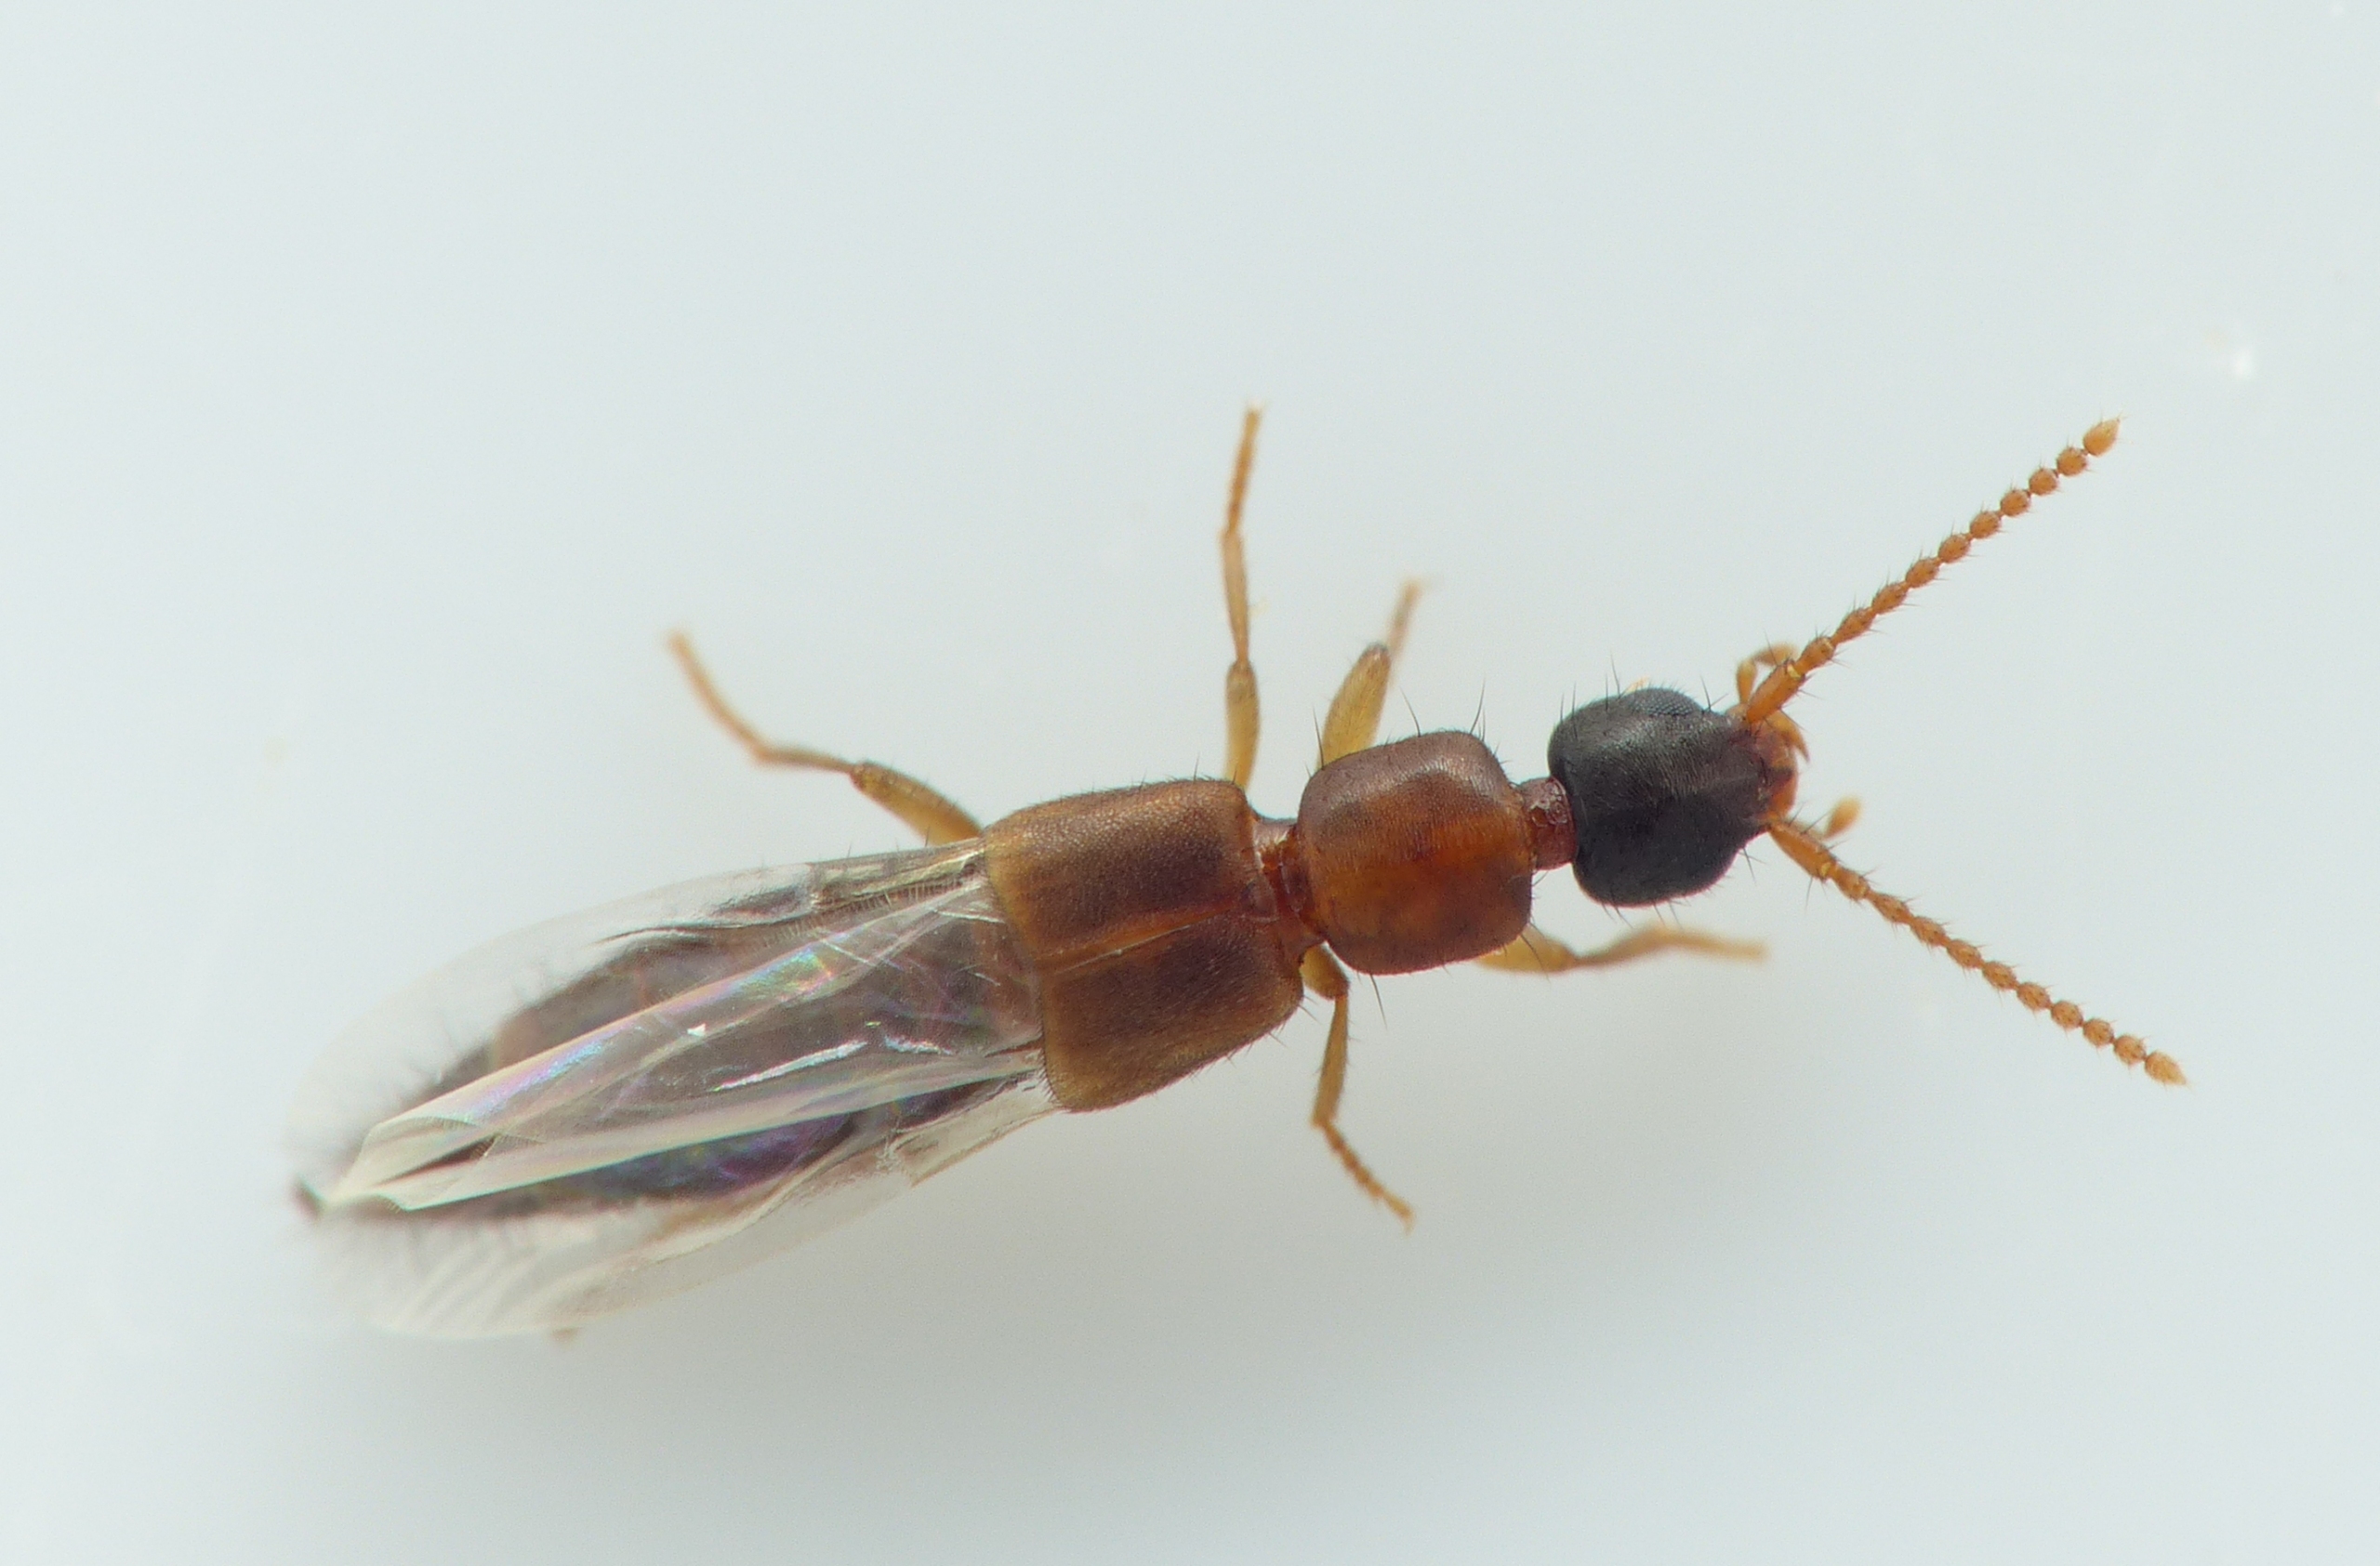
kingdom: Animalia
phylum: Arthropoda
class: Insecta
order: Coleoptera
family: Staphylinidae
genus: Lithocharis
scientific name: Lithocharis nigriceps
